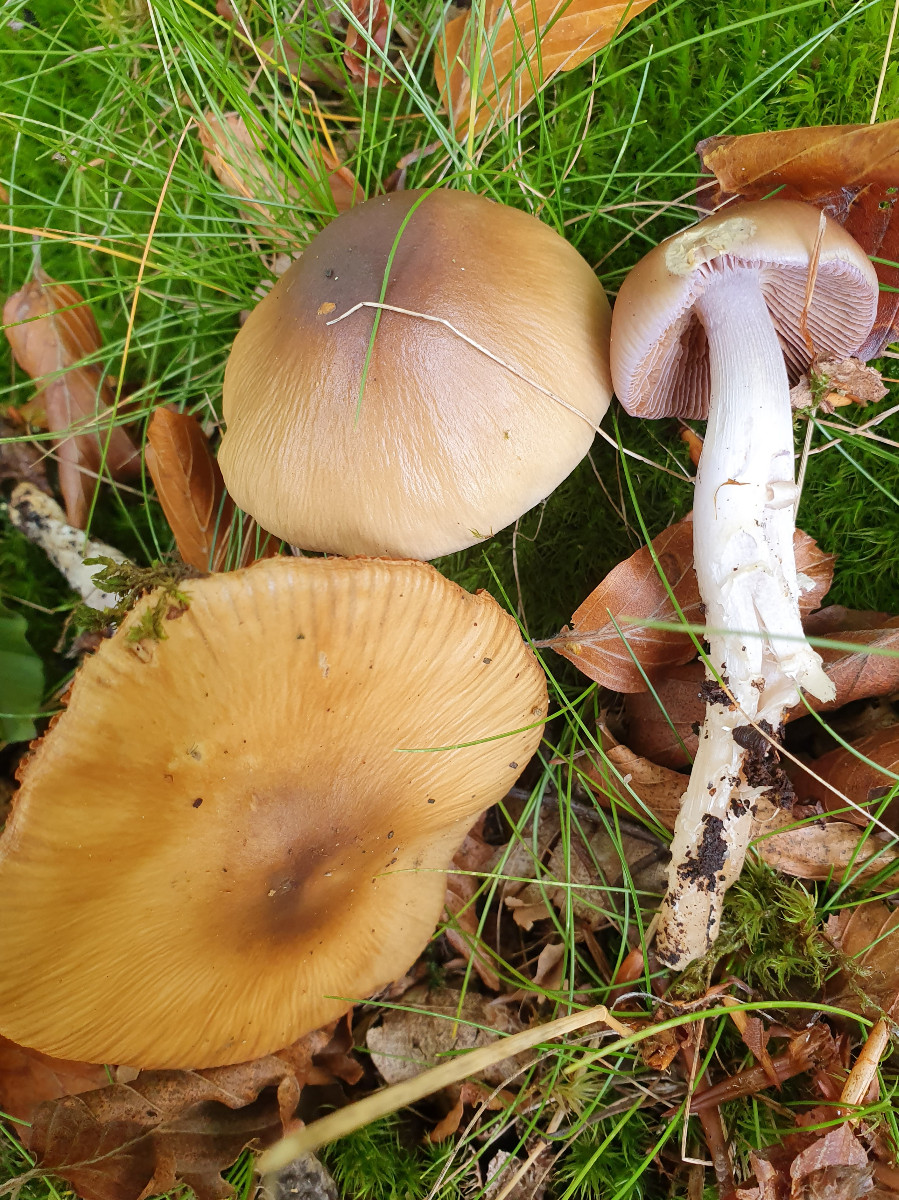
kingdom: Fungi
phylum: Basidiomycota
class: Agaricomycetes
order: Agaricales
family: Cortinariaceae
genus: Cortinarius
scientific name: Cortinarius elatior
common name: høj slørhat
